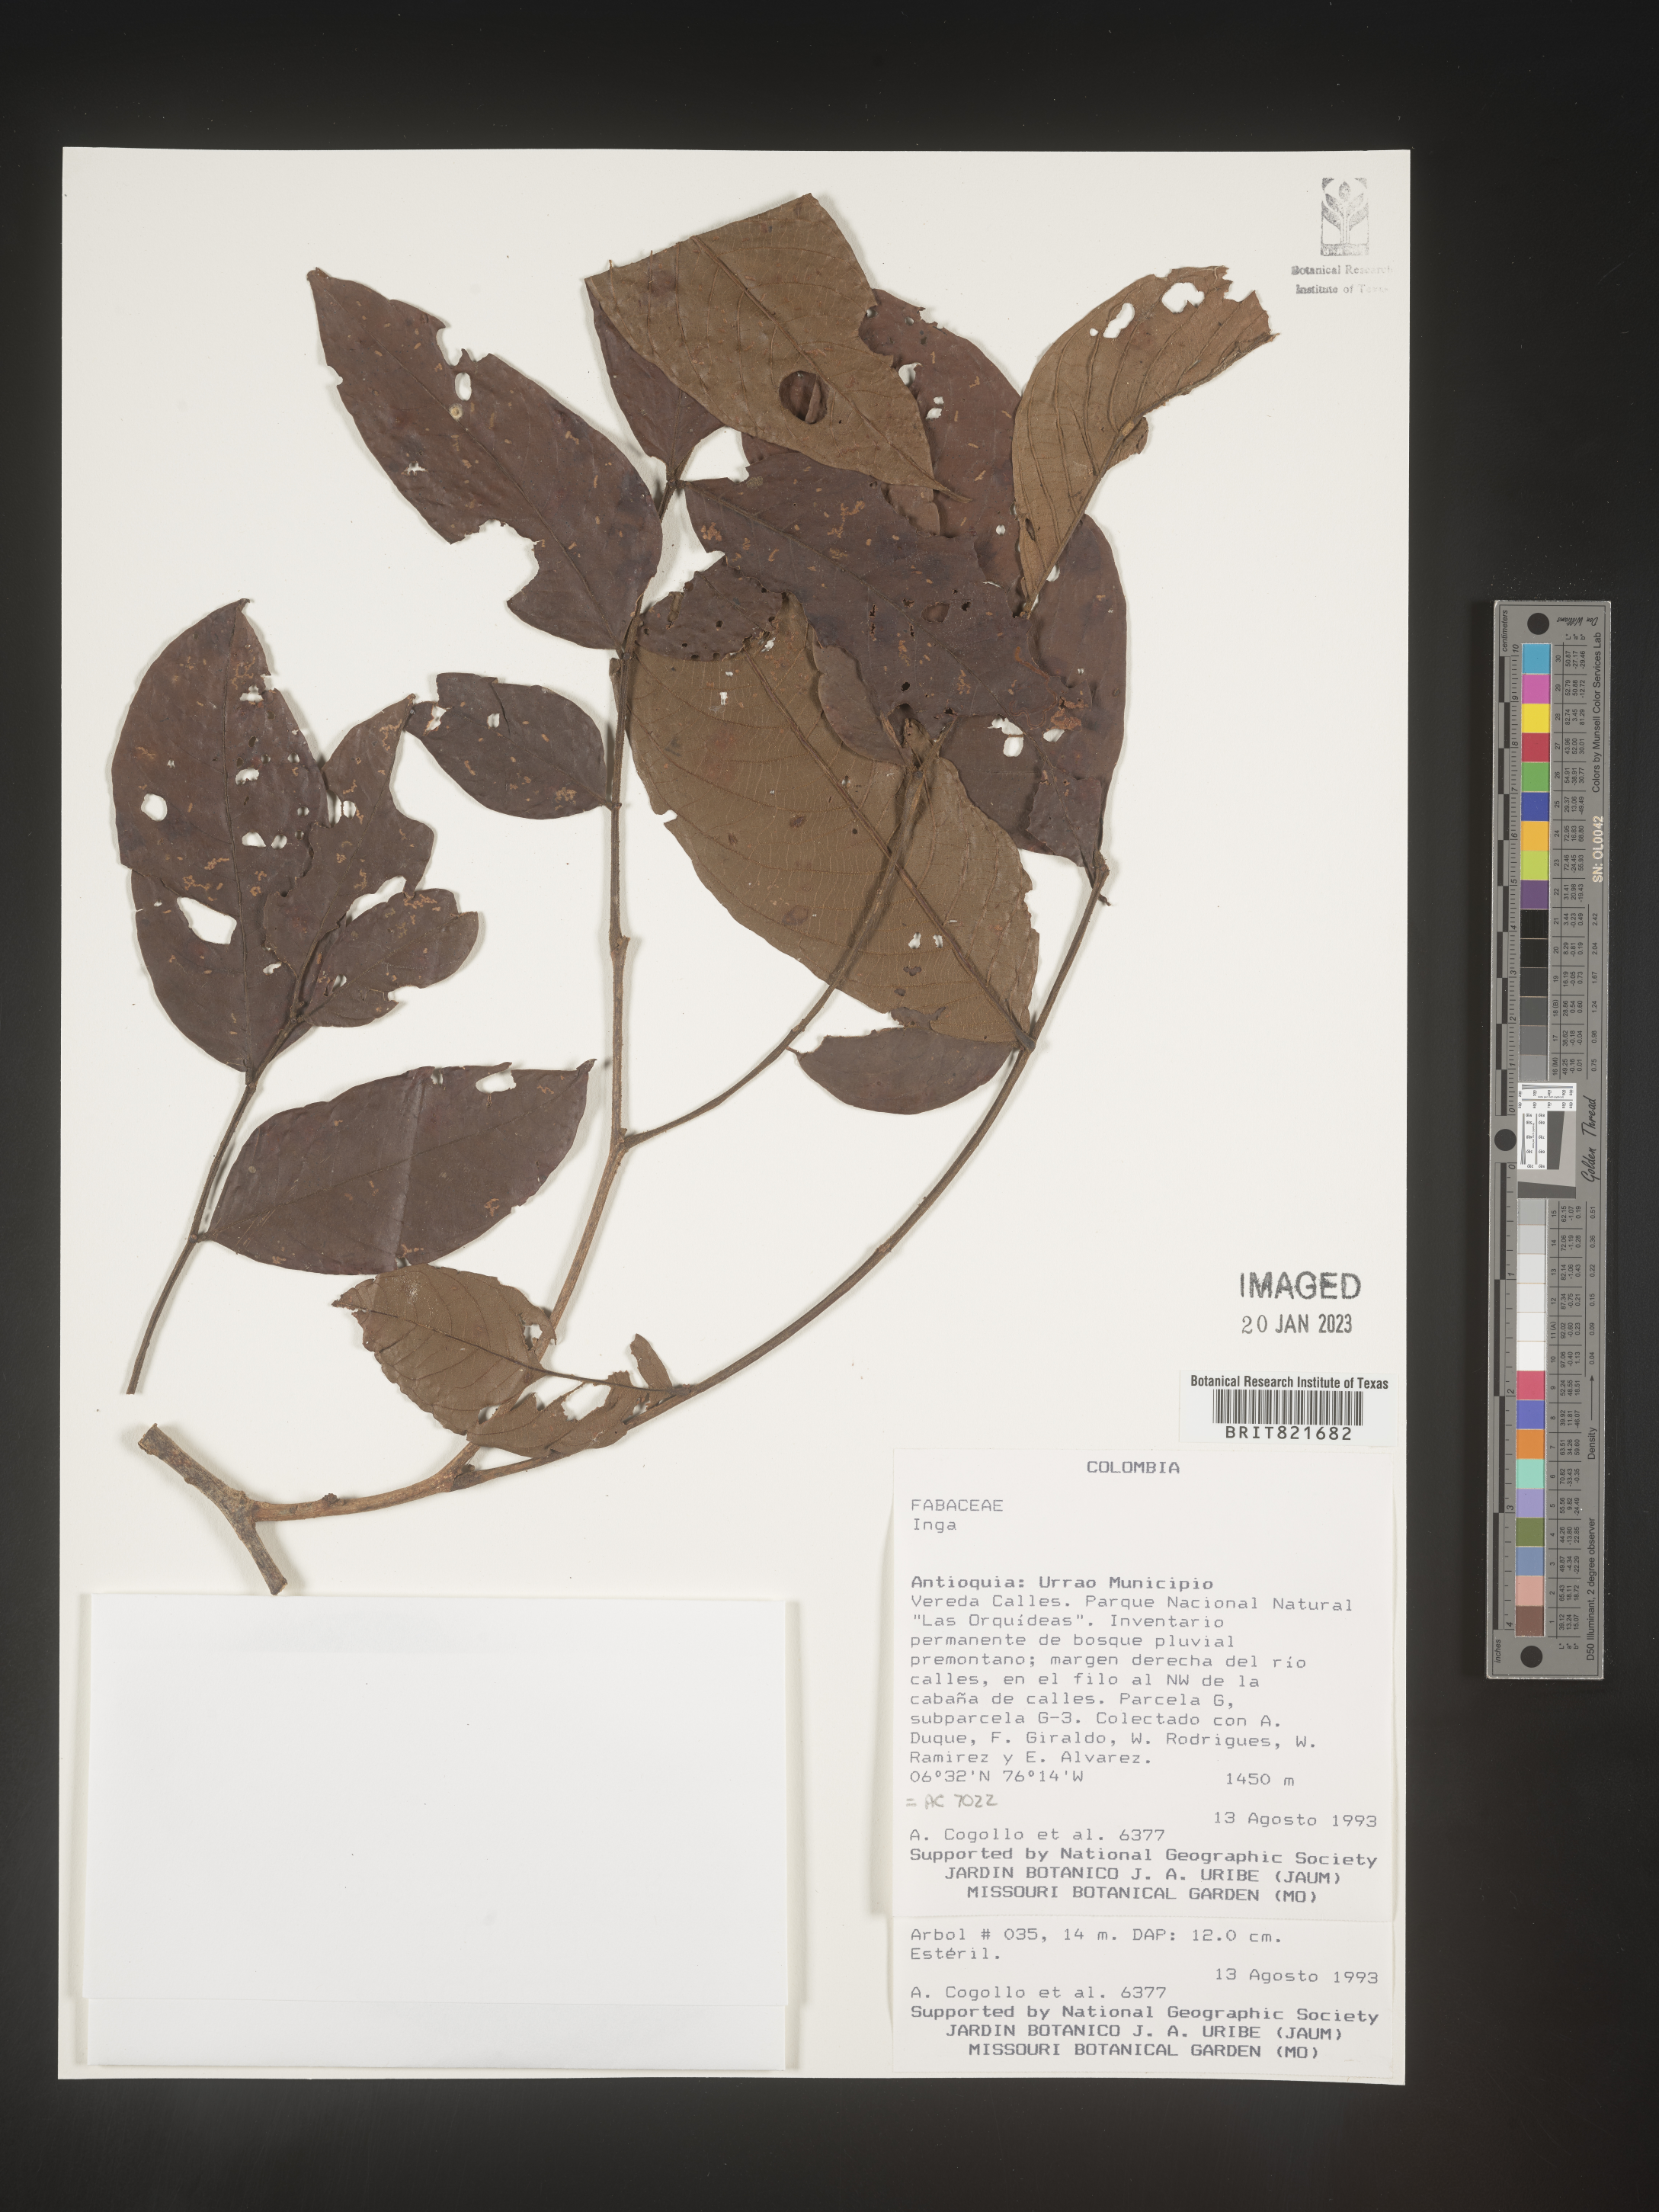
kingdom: Plantae
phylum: Tracheophyta
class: Magnoliopsida
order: Fabales
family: Fabaceae
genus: Inga
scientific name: Inga
